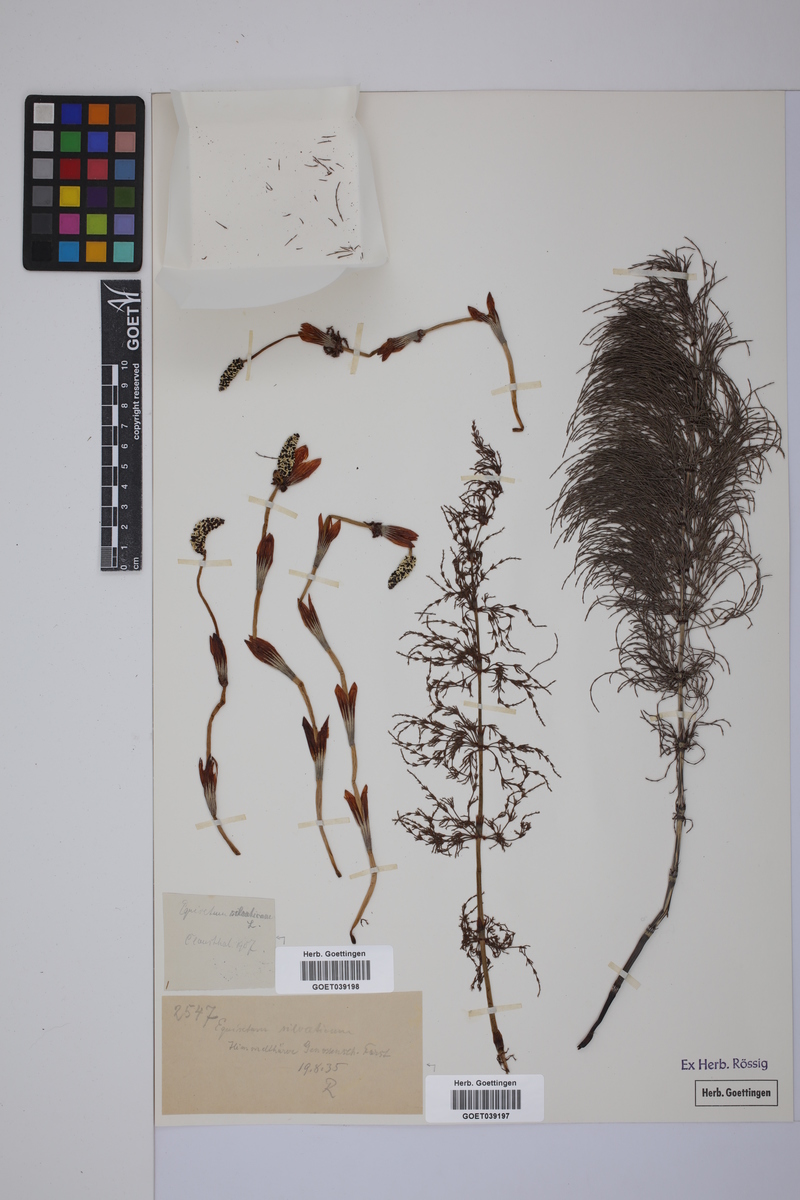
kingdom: Plantae
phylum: Tracheophyta
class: Polypodiopsida
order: Equisetales
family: Equisetaceae
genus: Equisetum
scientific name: Equisetum sylvaticum
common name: Wood horsetail
